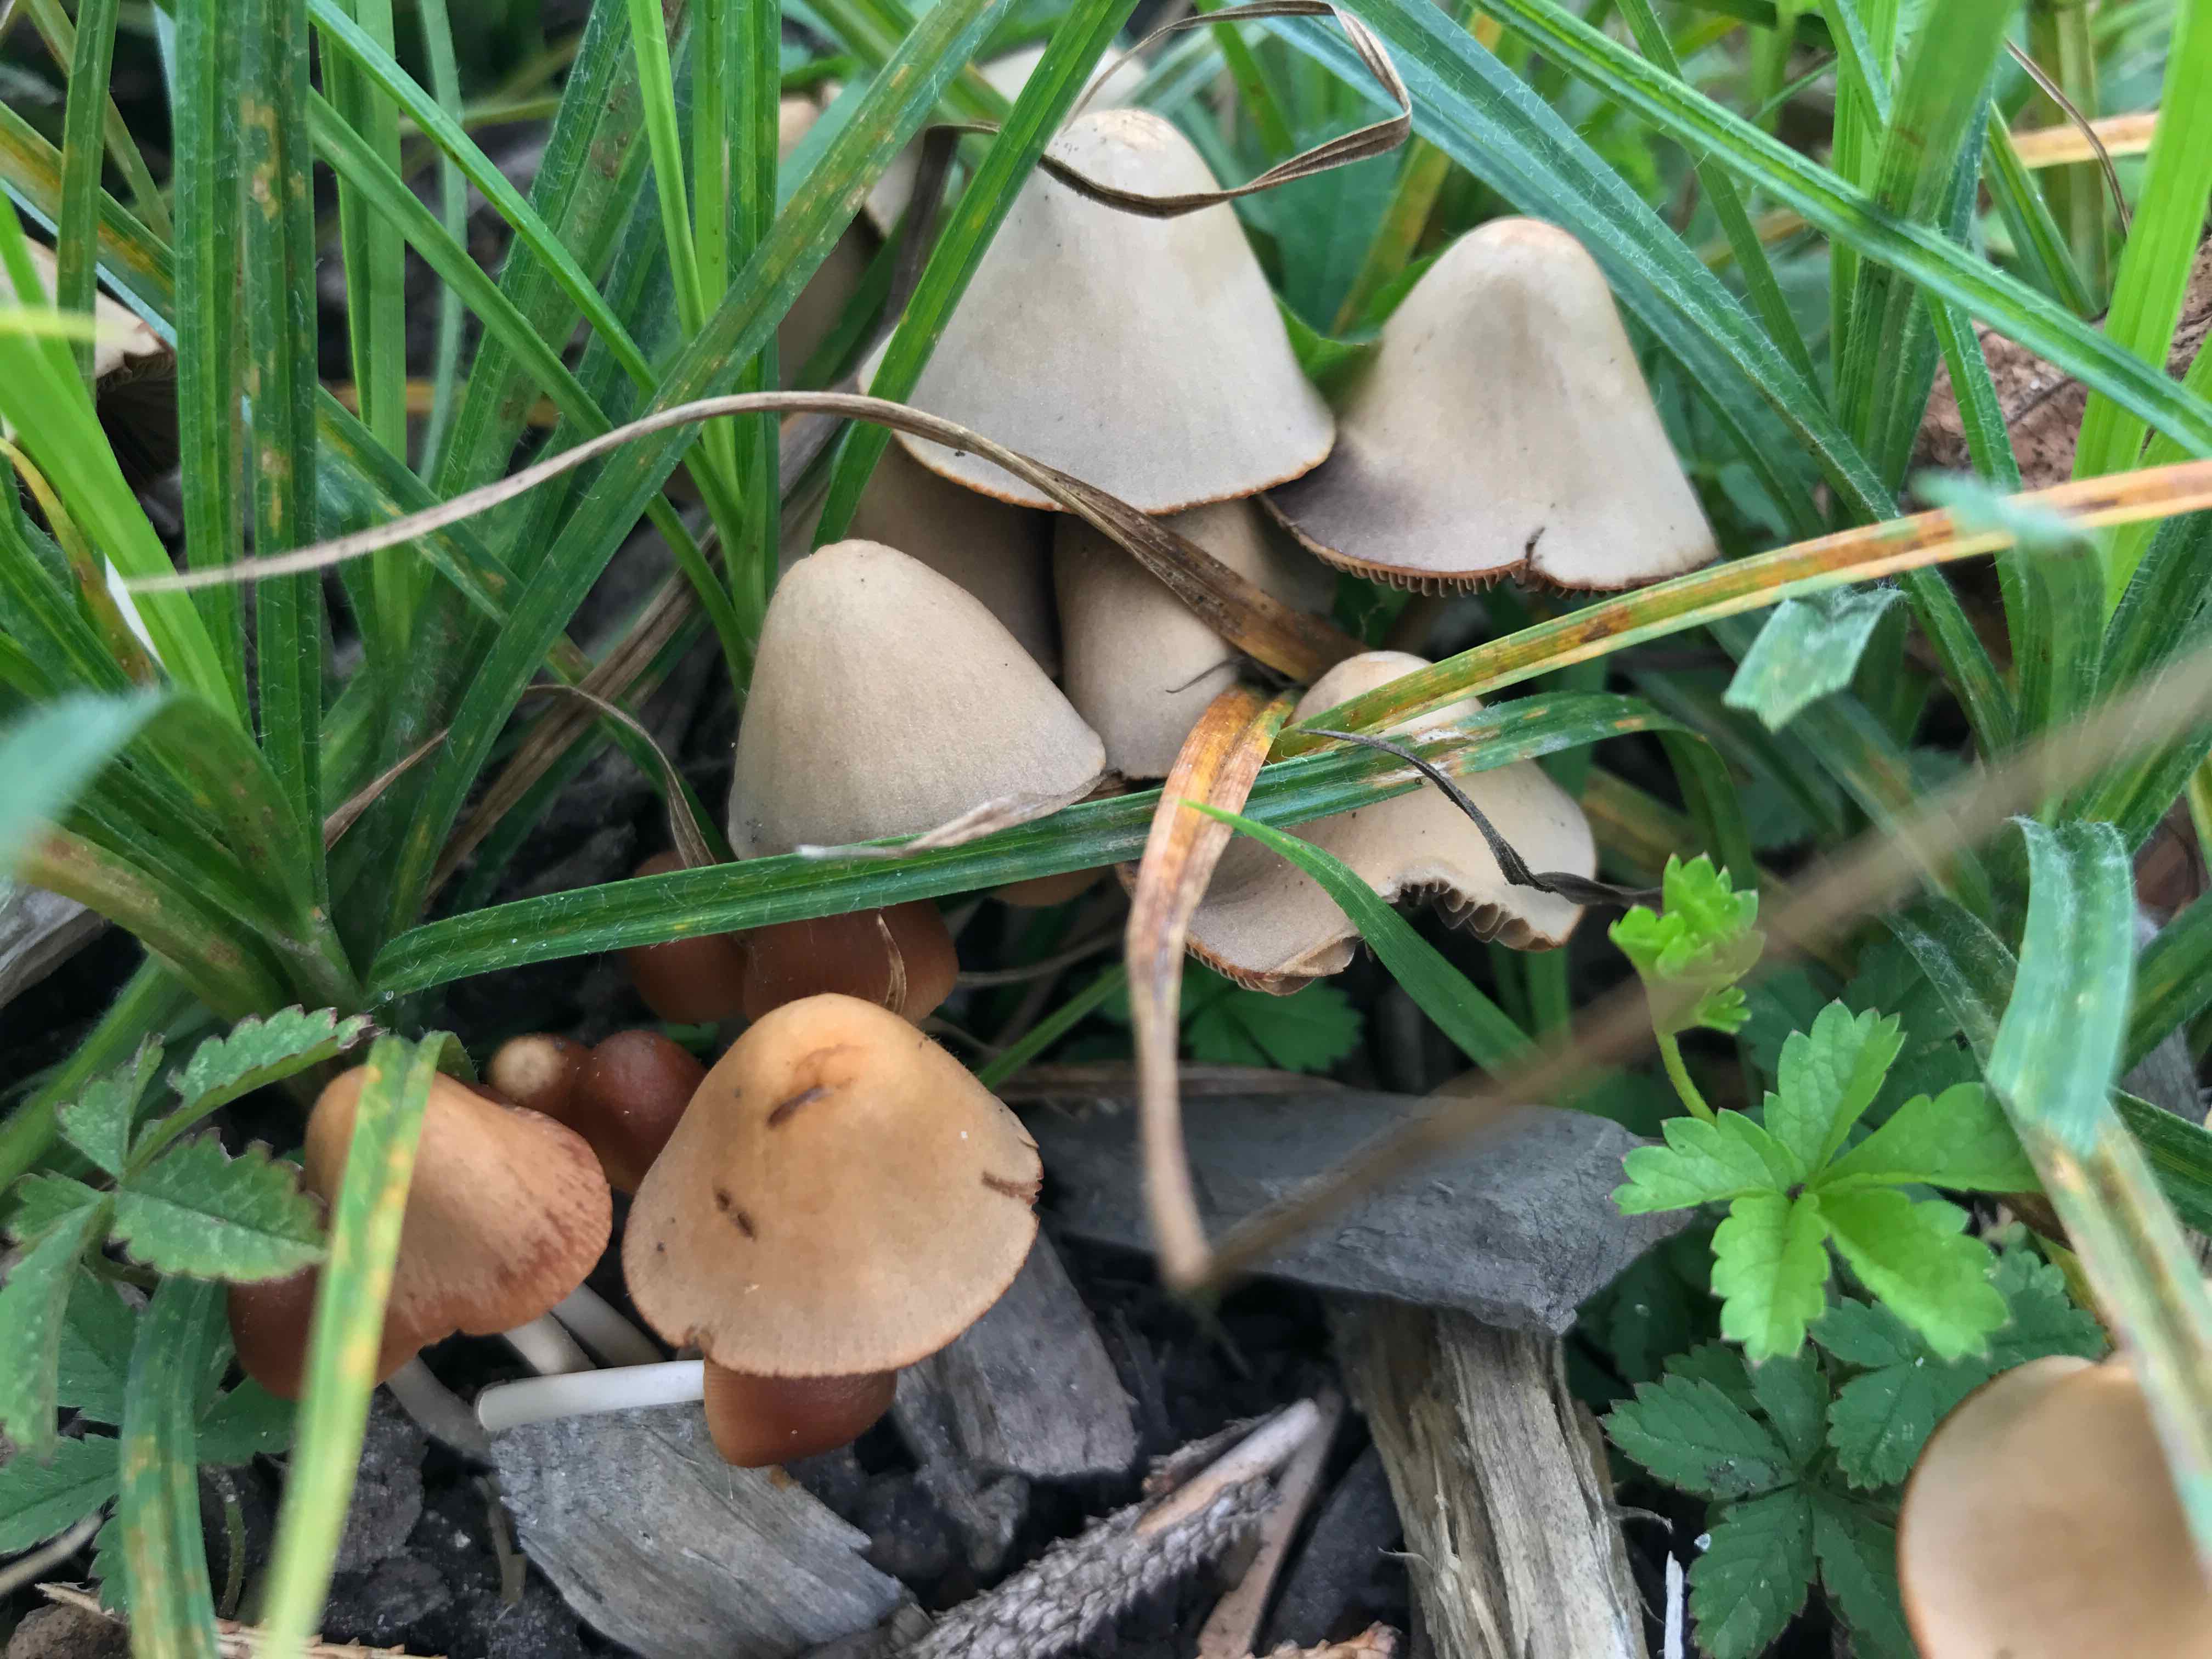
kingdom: Fungi
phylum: Basidiomycota
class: Agaricomycetes
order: Agaricales
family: Psathyrellaceae
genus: Parasola
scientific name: Parasola conopilea
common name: kegle-hjulhat
